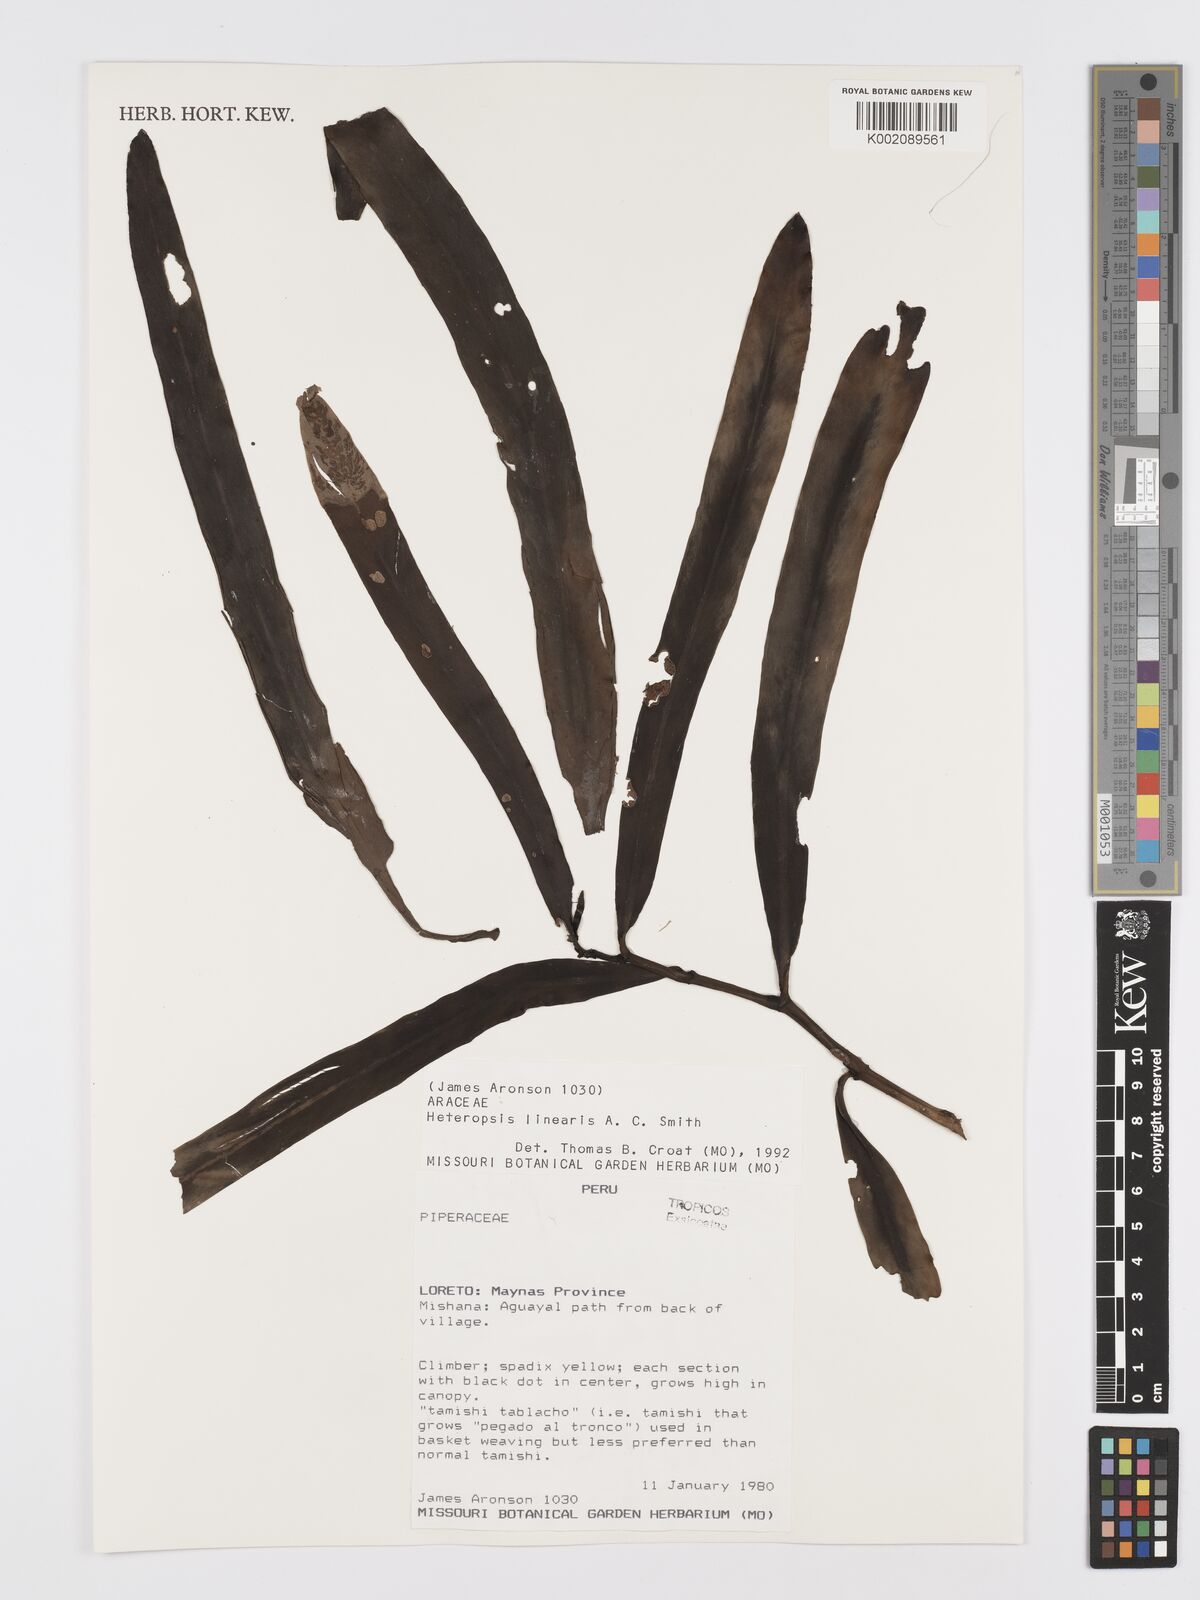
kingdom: Plantae
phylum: Tracheophyta
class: Liliopsida
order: Alismatales
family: Araceae
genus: Heteropsis
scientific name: Heteropsis linearis
